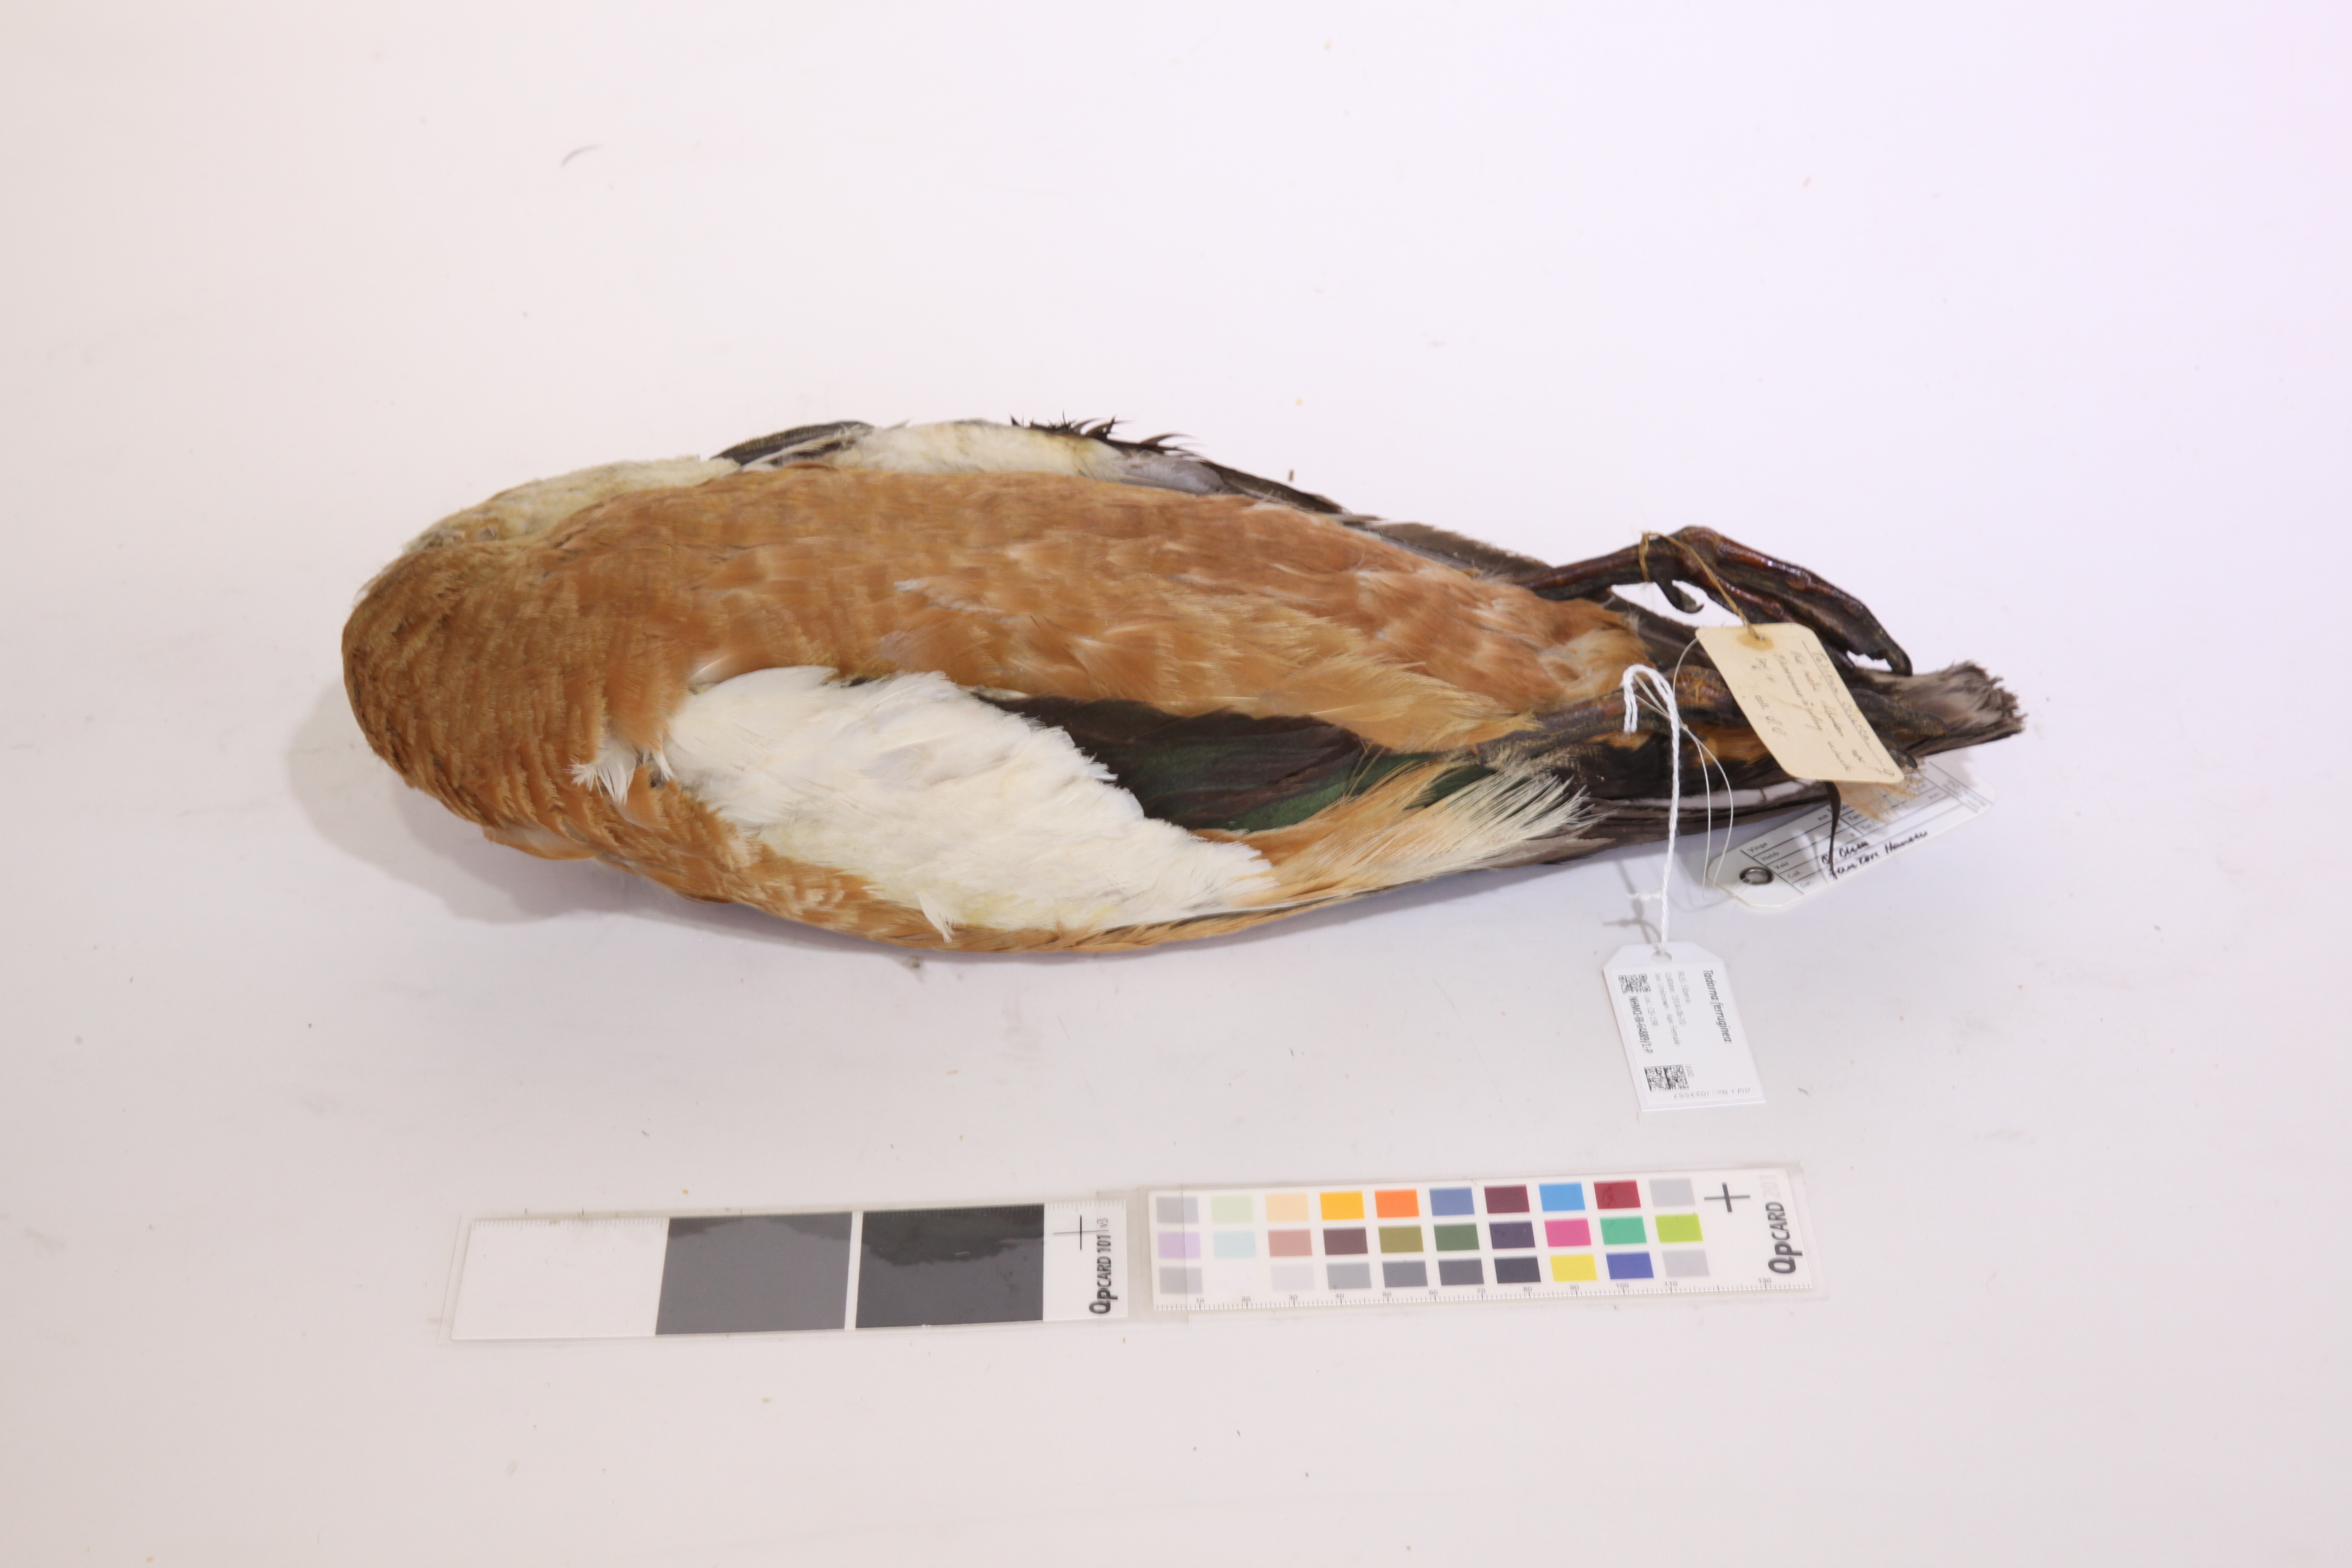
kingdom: Animalia
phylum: Chordata
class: Aves
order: Anseriformes
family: Anatidae
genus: Tadorna
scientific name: Tadorna ferruginea
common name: Ruddy shelduck
